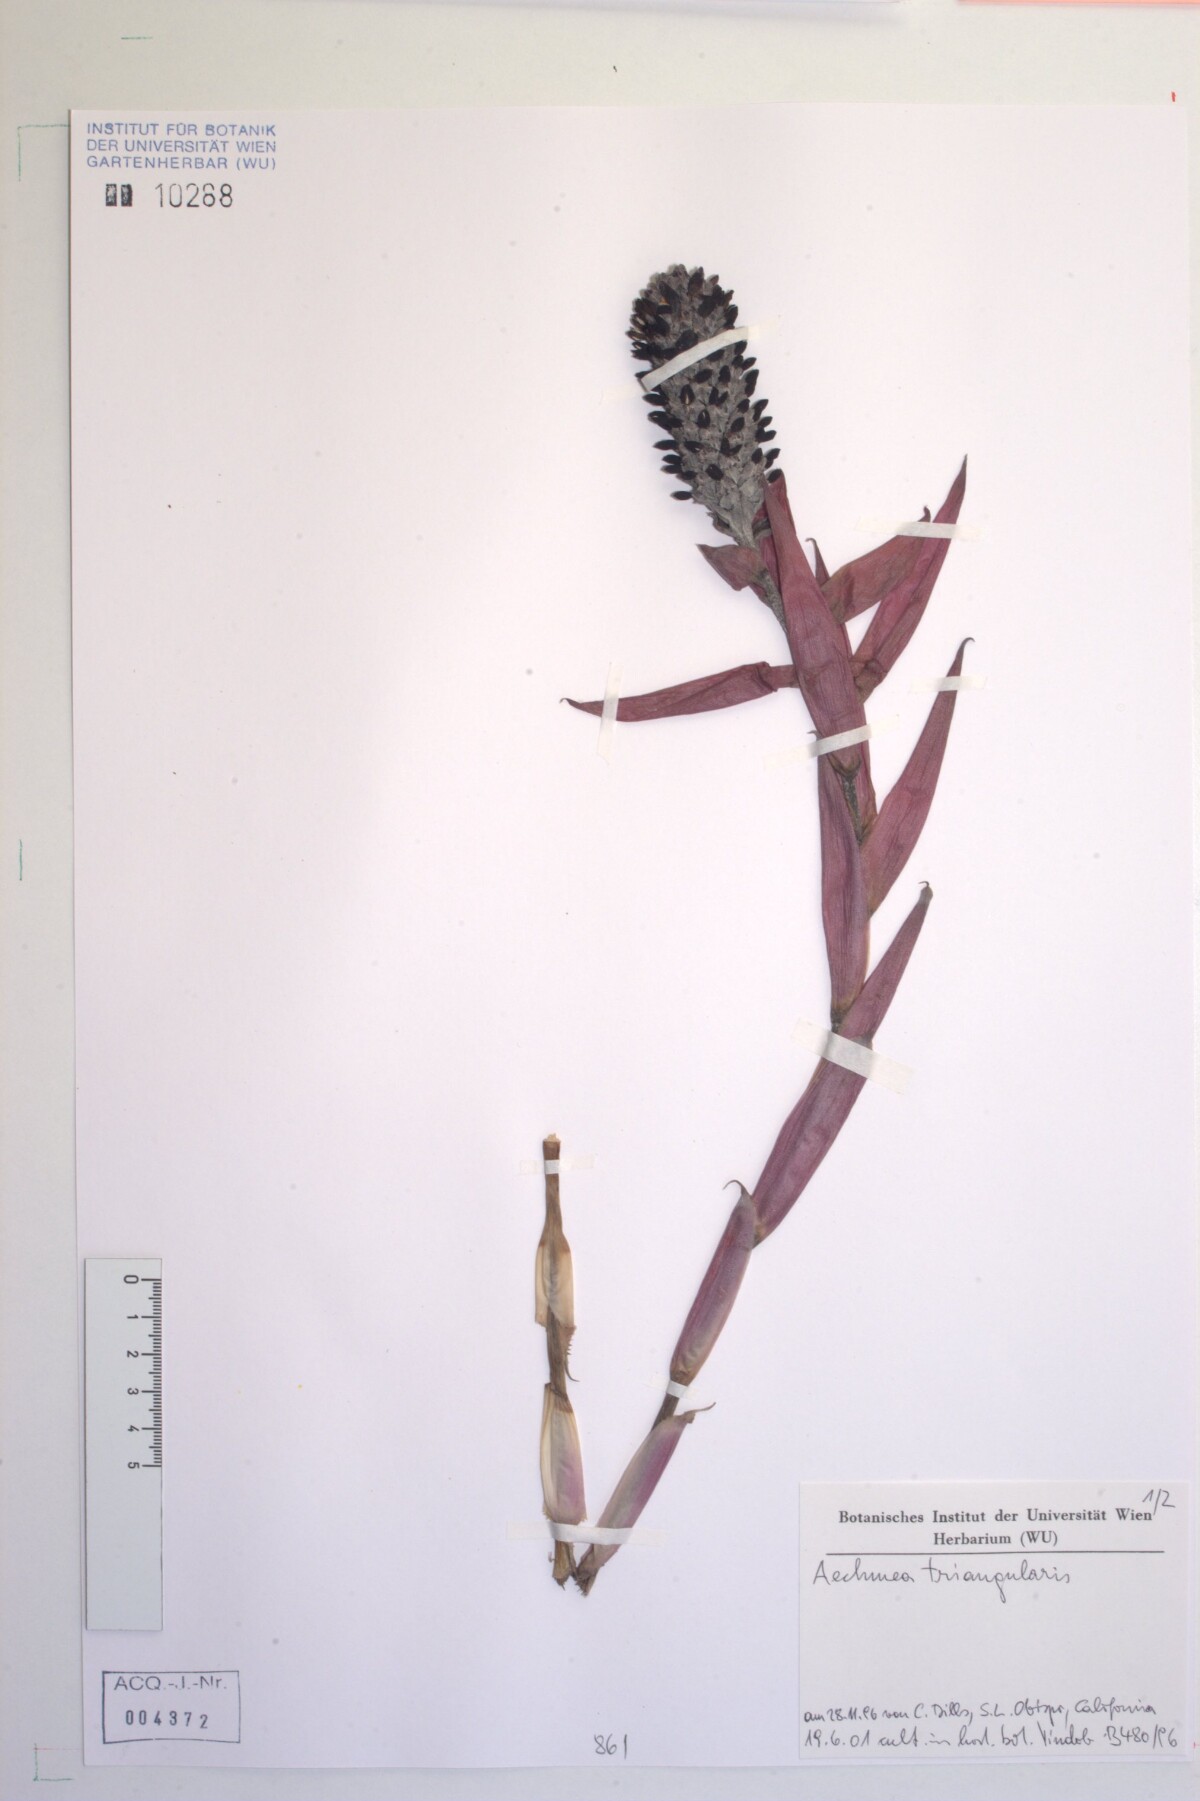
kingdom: Plantae
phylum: Tracheophyta
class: Liliopsida
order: Poales
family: Bromeliaceae
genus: Aechmea
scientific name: Aechmea triangularis
